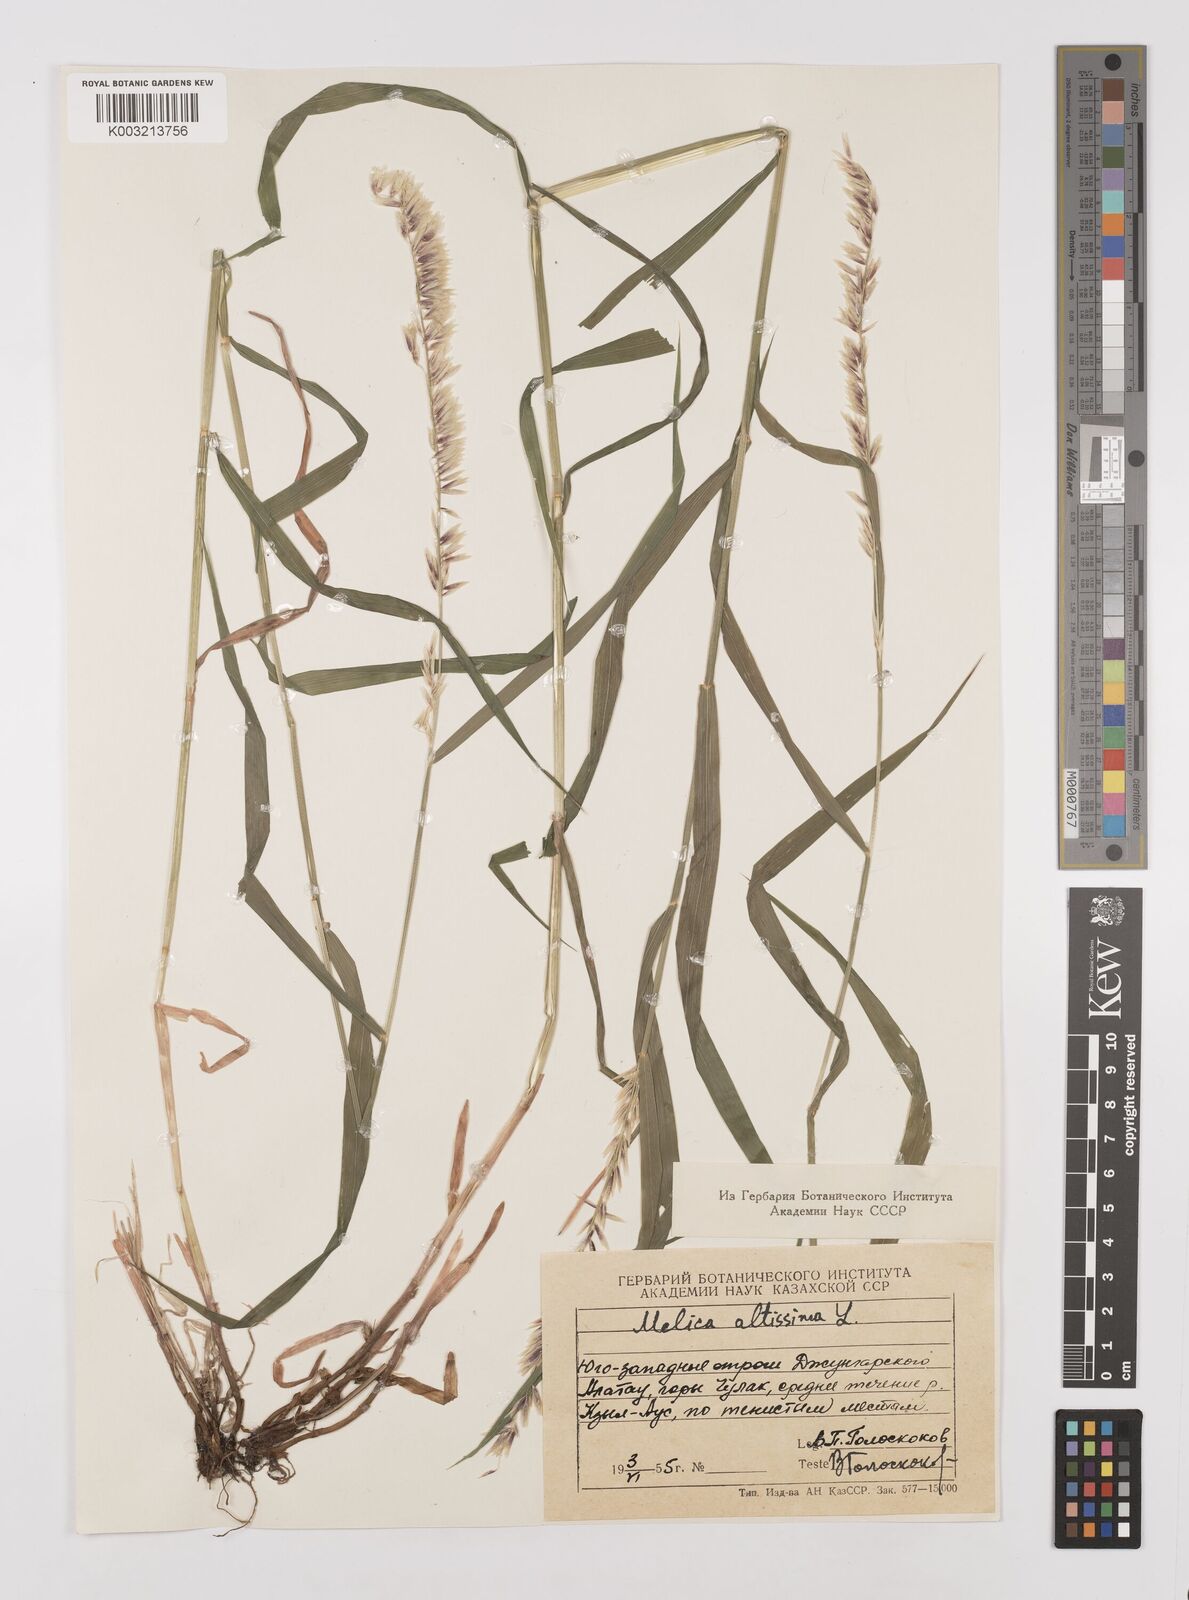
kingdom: Plantae
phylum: Tracheophyta
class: Liliopsida
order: Poales
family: Poaceae
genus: Melica
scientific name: Melica
